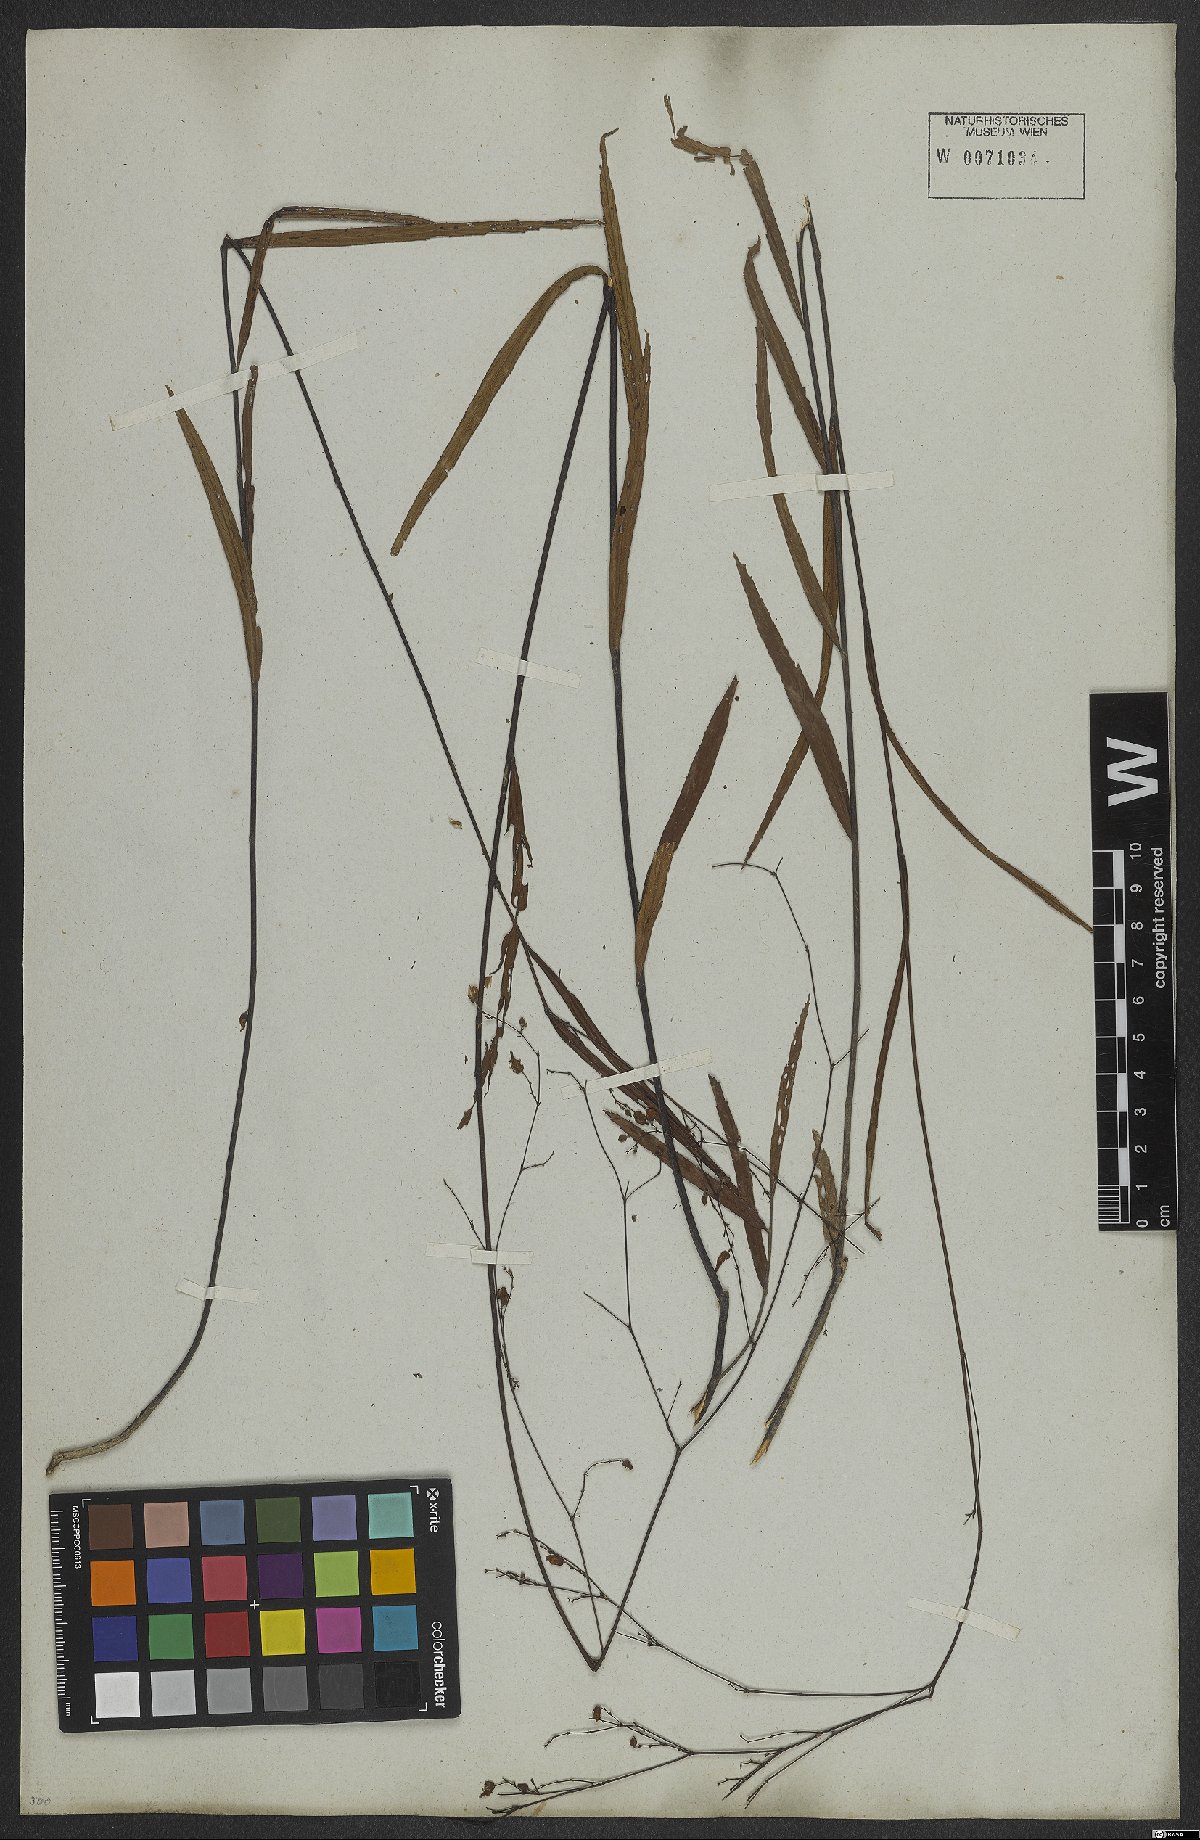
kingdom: Plantae
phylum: Tracheophyta
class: Magnoliopsida
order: Malvales
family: Malvaceae
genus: Melochia
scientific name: Melochia graminifolia
